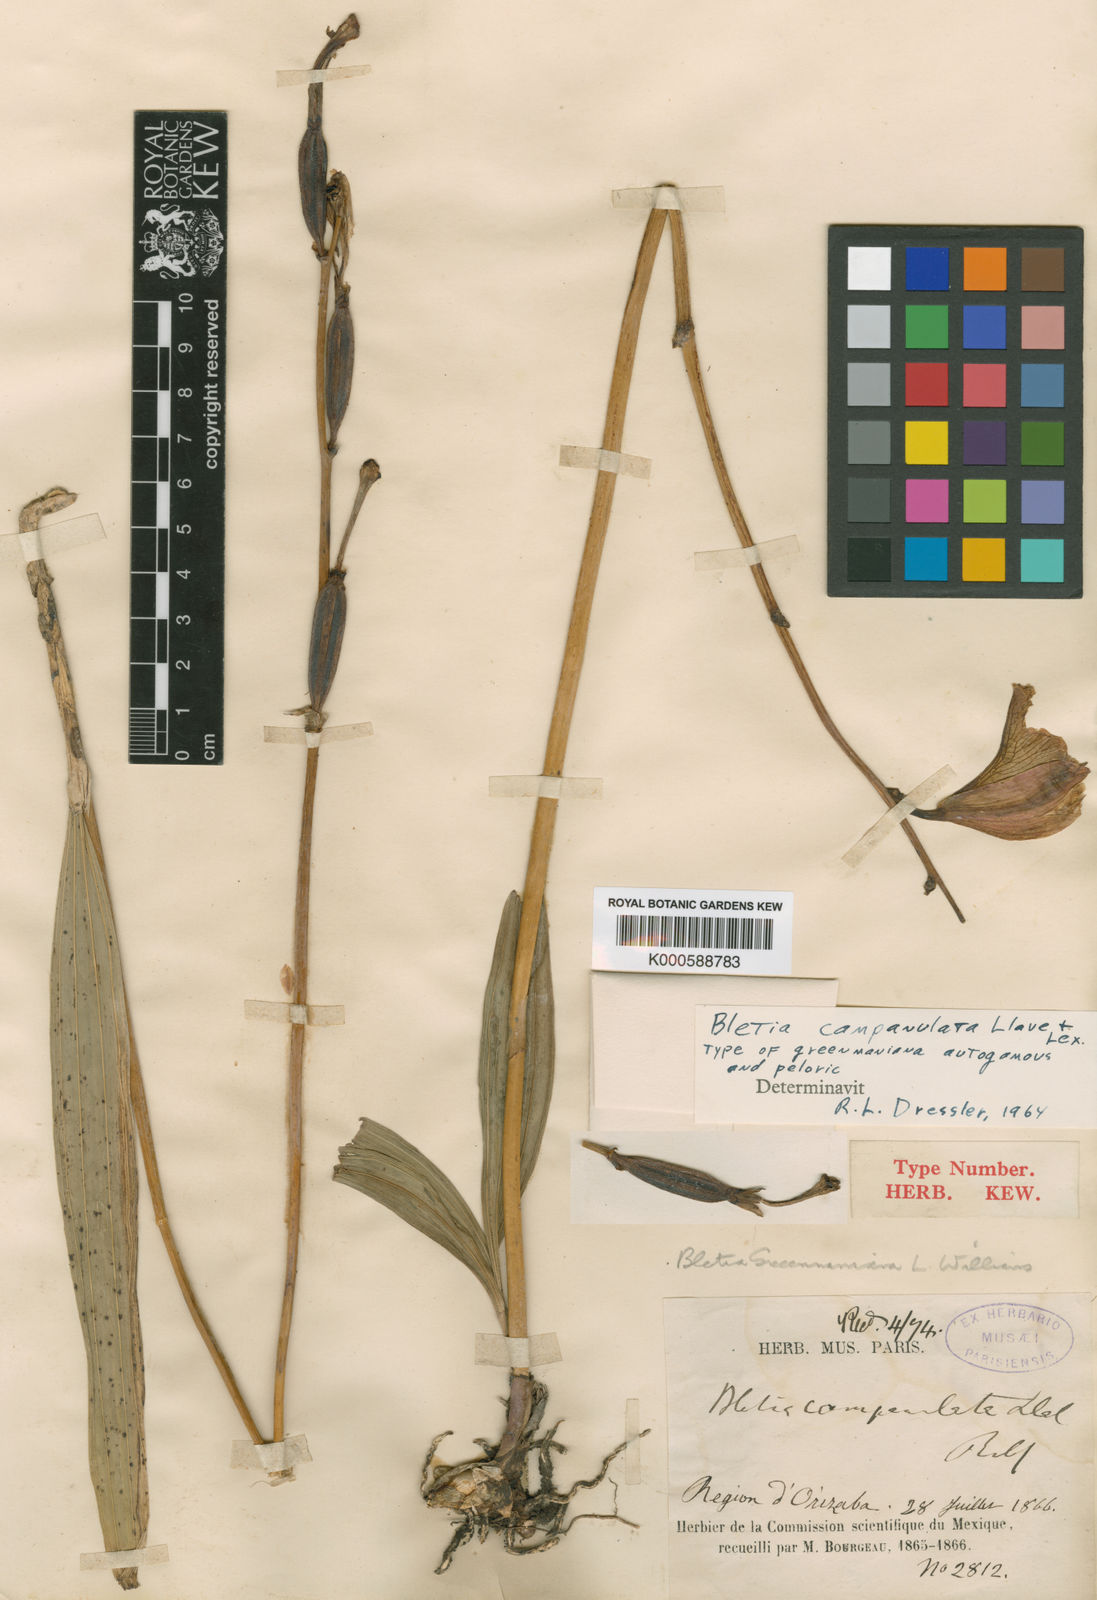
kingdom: Plantae
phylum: Tracheophyta
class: Liliopsida
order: Asparagales
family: Orchidaceae
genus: Bletia
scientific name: Bletia campanulata
